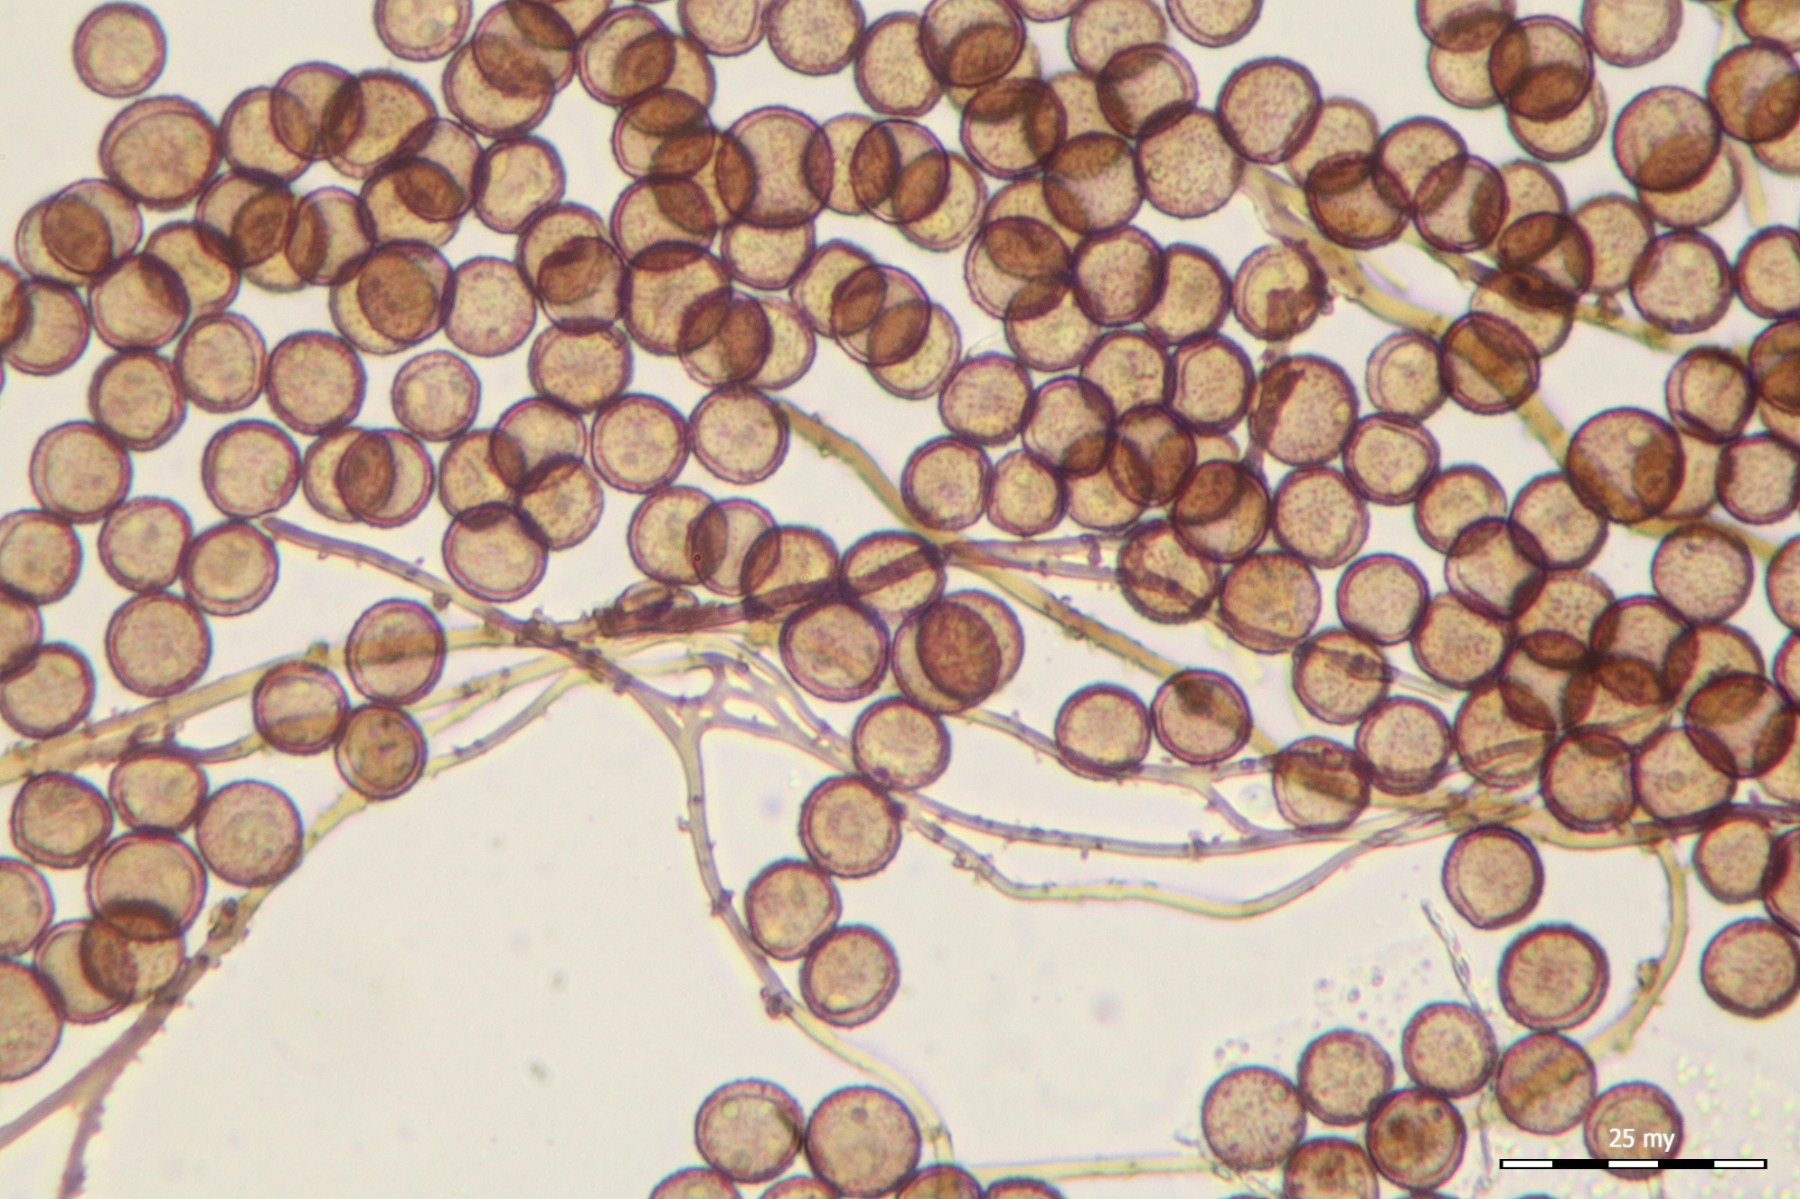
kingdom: Protozoa
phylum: Mycetozoa
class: Myxomycetes
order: Physarales
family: Didymiaceae
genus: Diderma
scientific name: Diderma deplanatum
